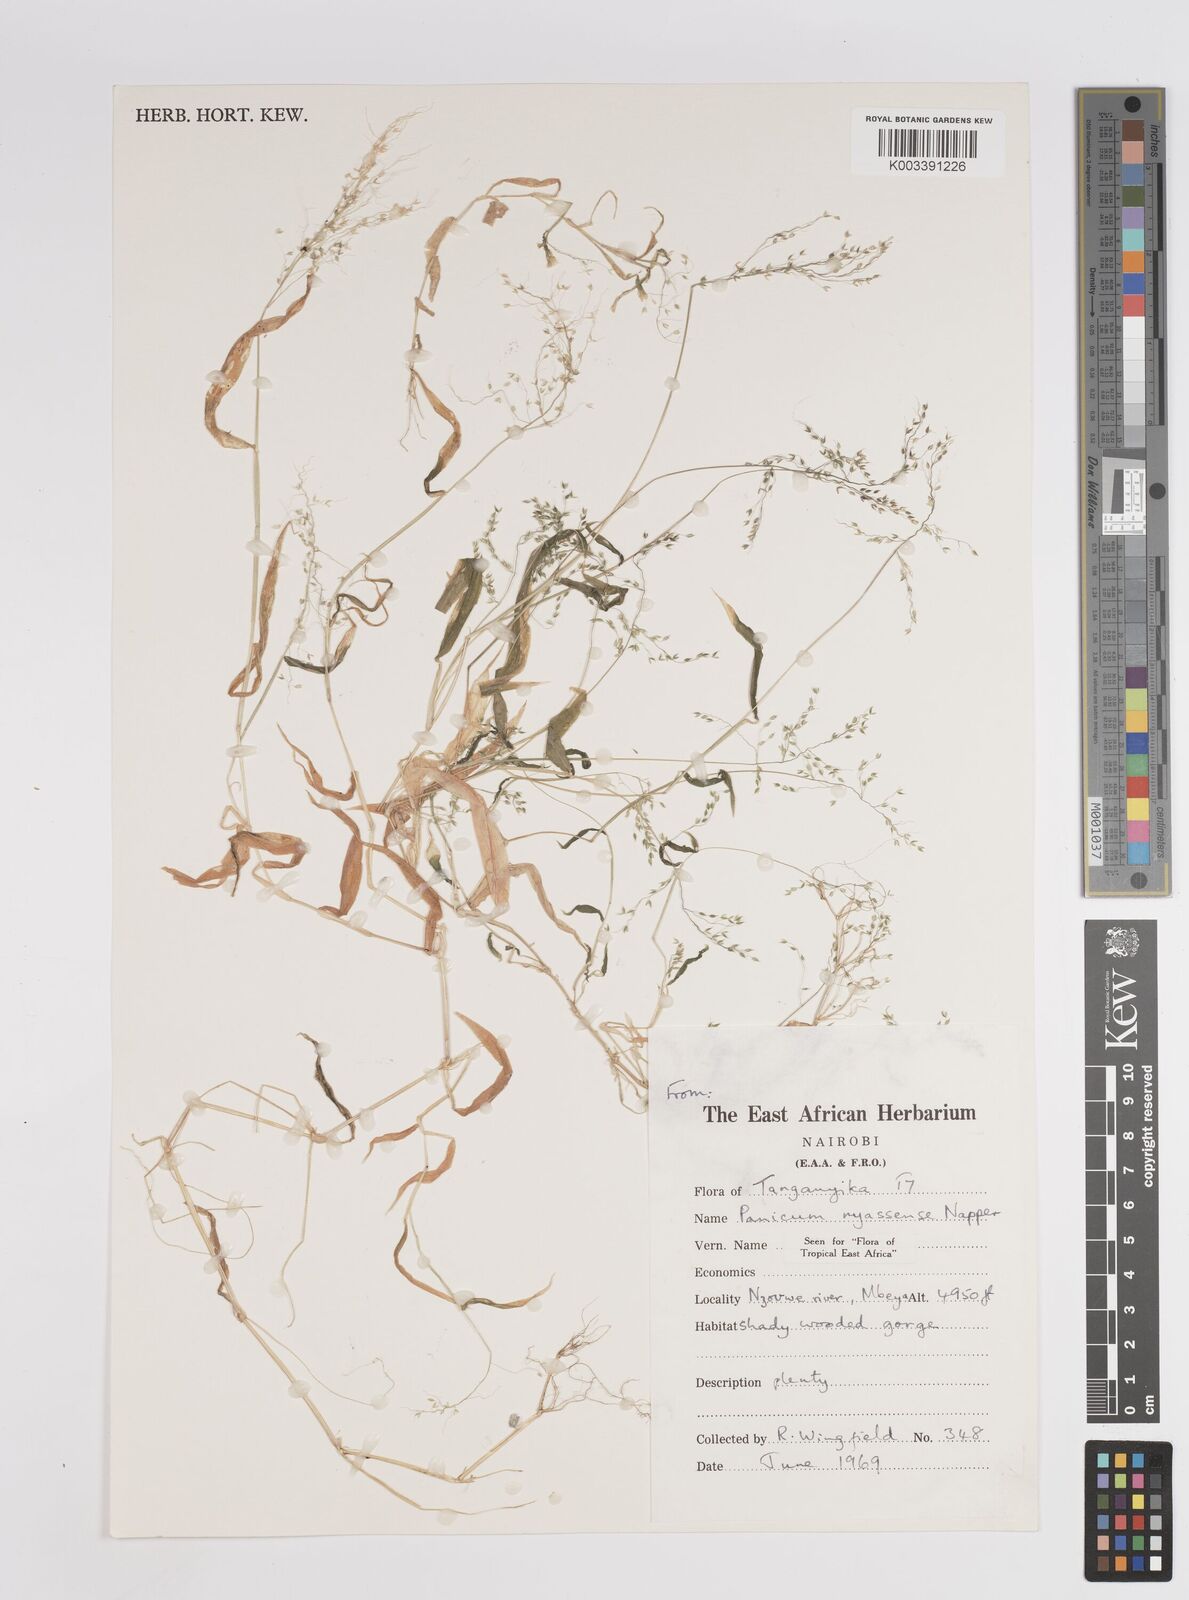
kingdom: Plantae
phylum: Tracheophyta
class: Liliopsida
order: Poales
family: Poaceae
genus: Panicum
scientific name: Panicum delicatulum
